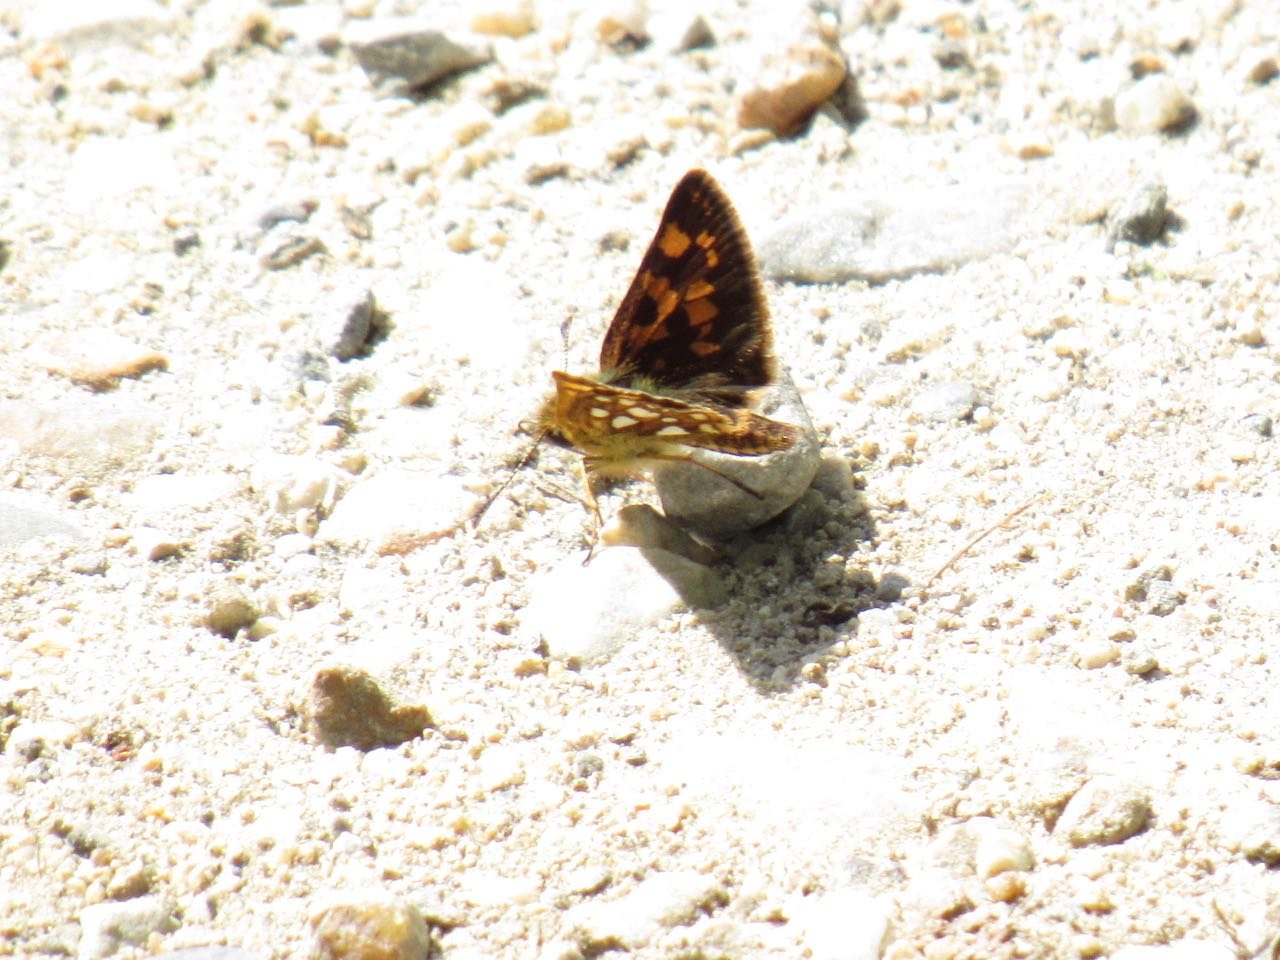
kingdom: Animalia
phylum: Arthropoda
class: Insecta
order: Lepidoptera
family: Hesperiidae
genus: Carterocephalus
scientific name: Carterocephalus palaemon
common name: Chequered Skipper
